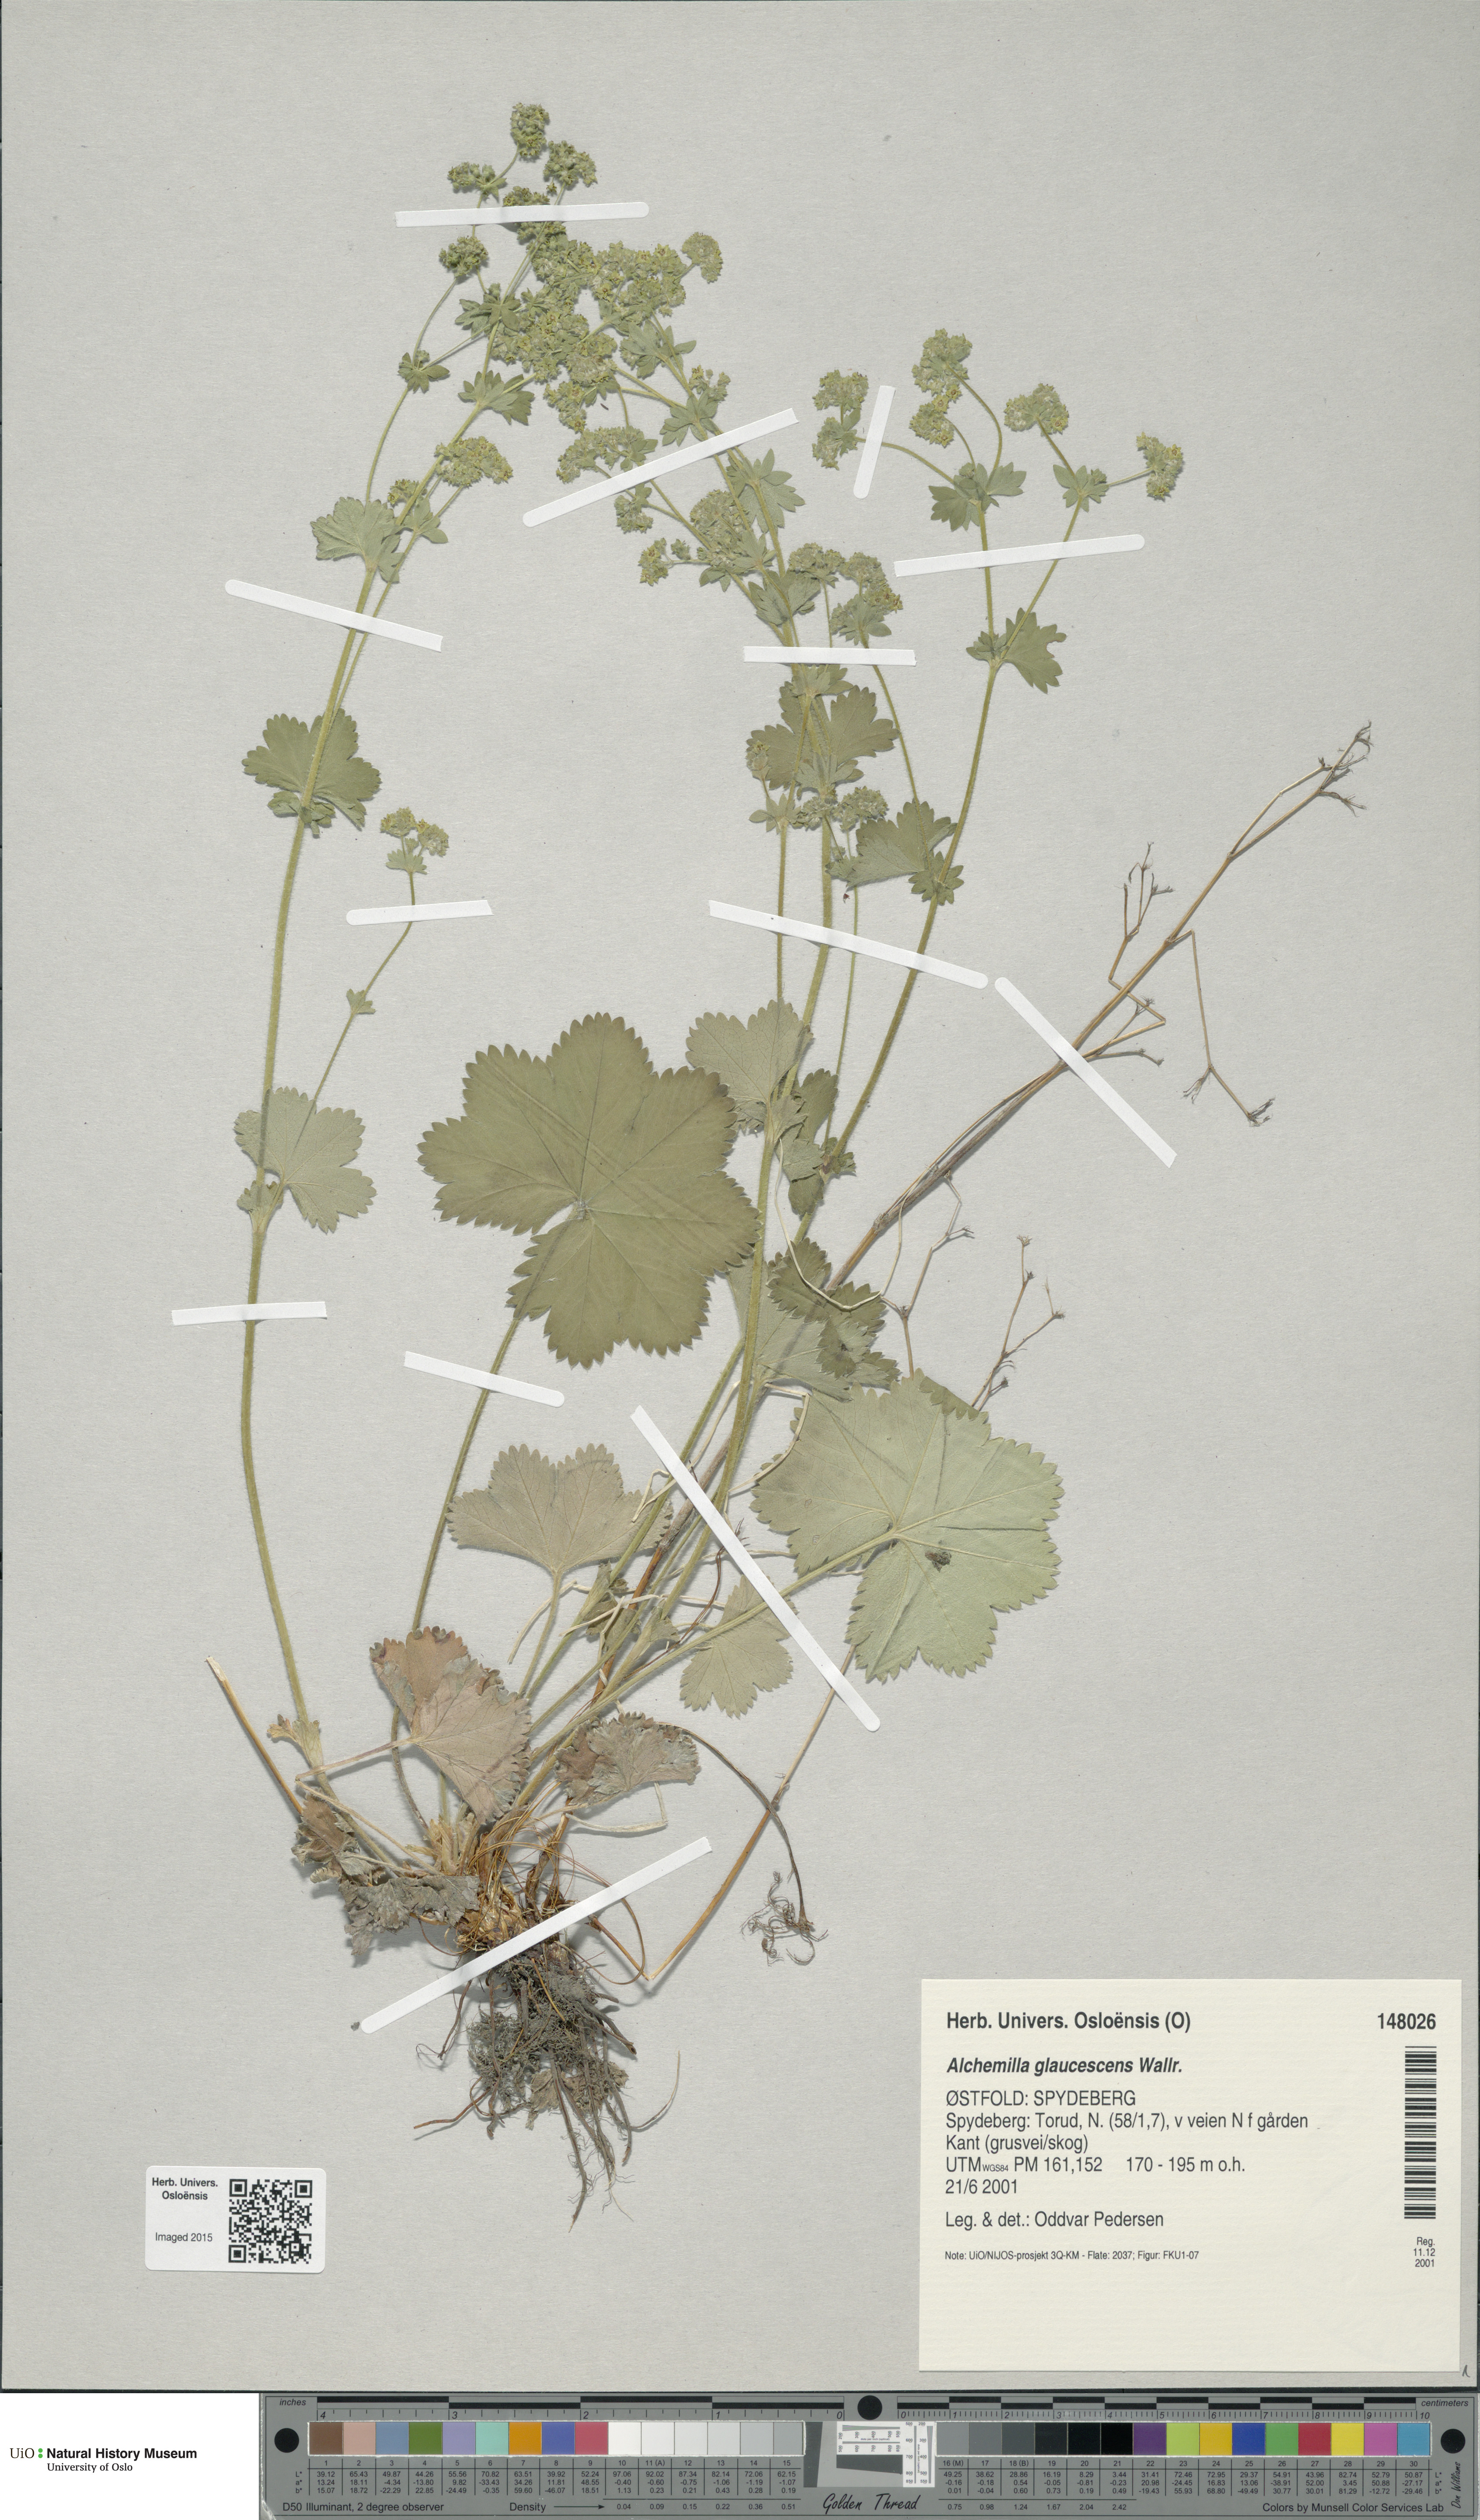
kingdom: Plantae
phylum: Tracheophyta
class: Magnoliopsida
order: Rosales
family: Rosaceae
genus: Alchemilla
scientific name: Alchemilla glaucescens
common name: Silky lady's mantle
